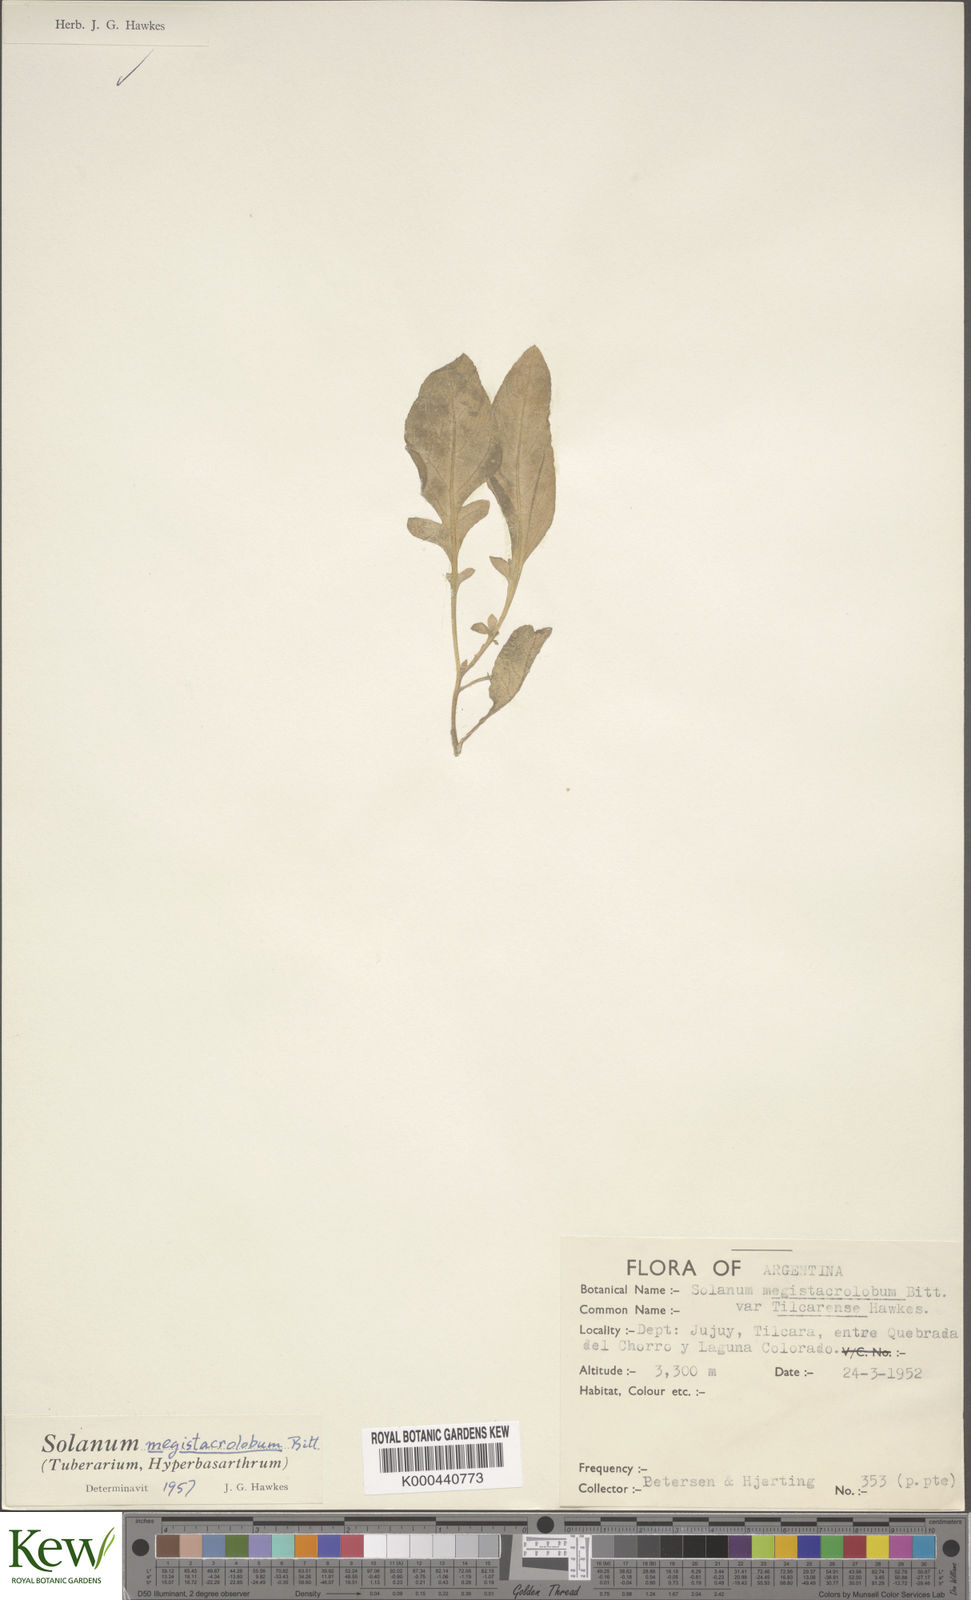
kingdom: Plantae
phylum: Tracheophyta
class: Magnoliopsida
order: Solanales
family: Solanaceae
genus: Solanum
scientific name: Solanum boliviense
